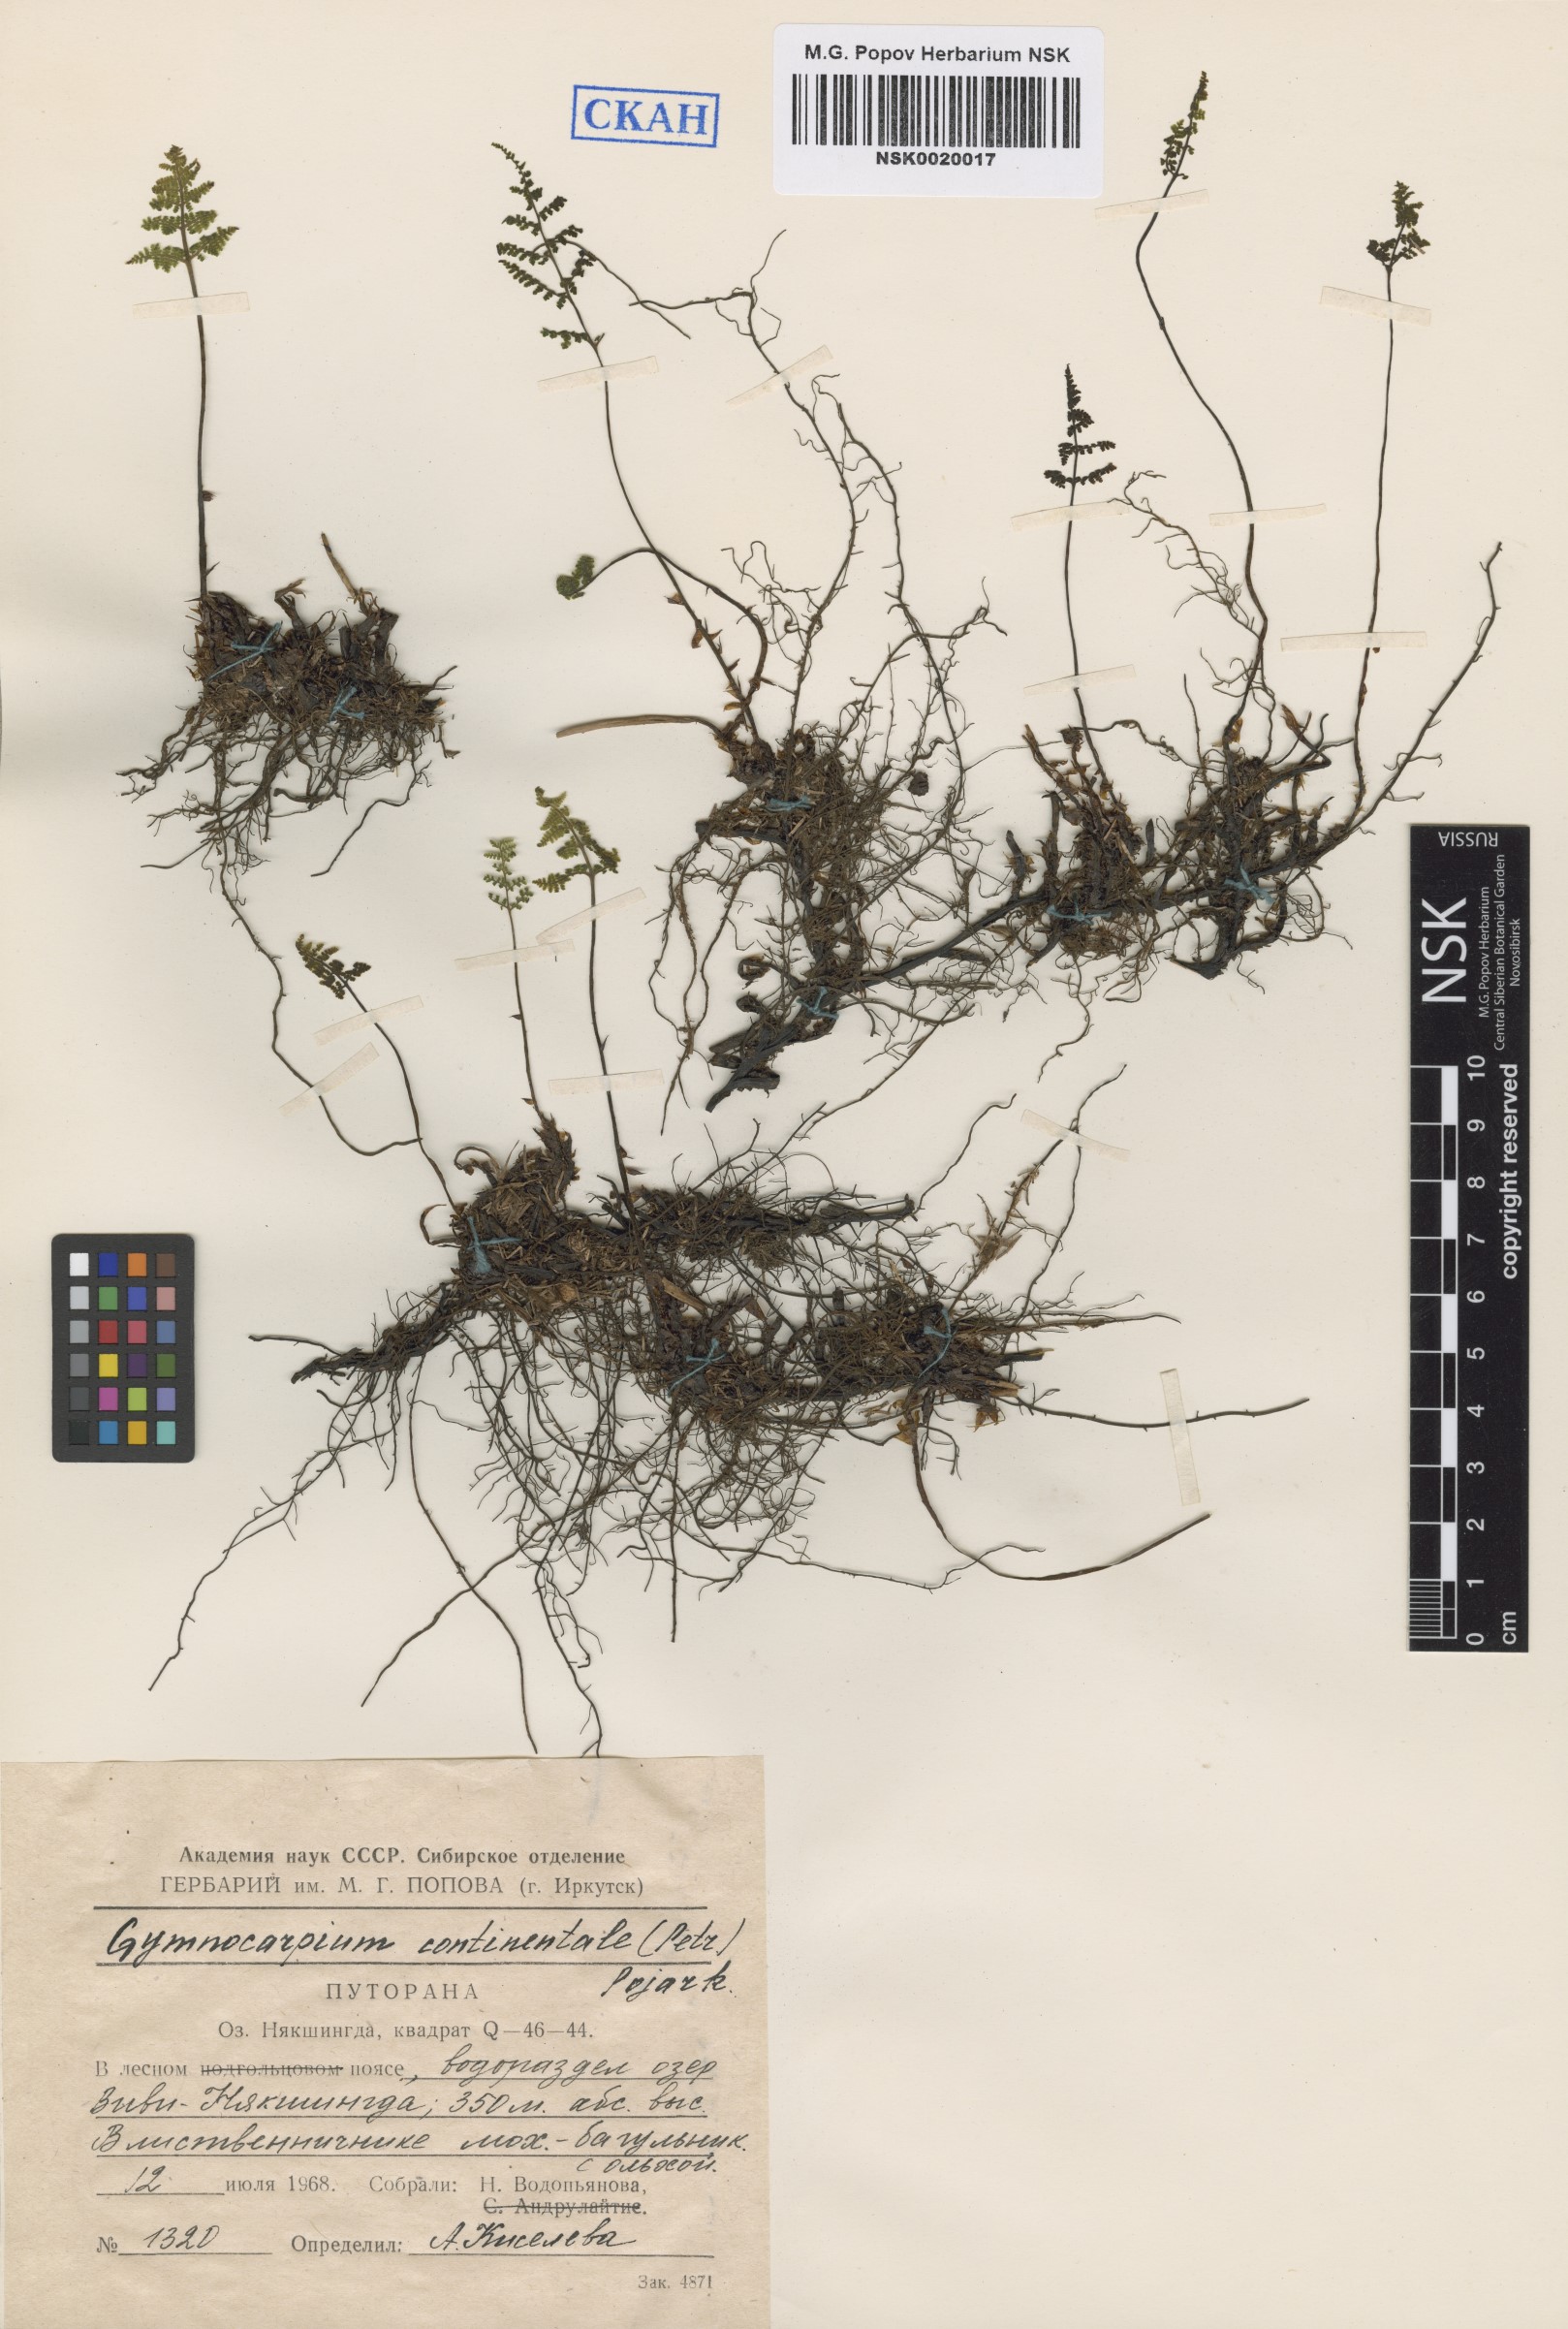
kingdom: Plantae
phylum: Tracheophyta
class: Polypodiopsida
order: Polypodiales
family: Cystopteridaceae
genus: Gymnocarpium
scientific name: Gymnocarpium continentale
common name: Asian oak fern
